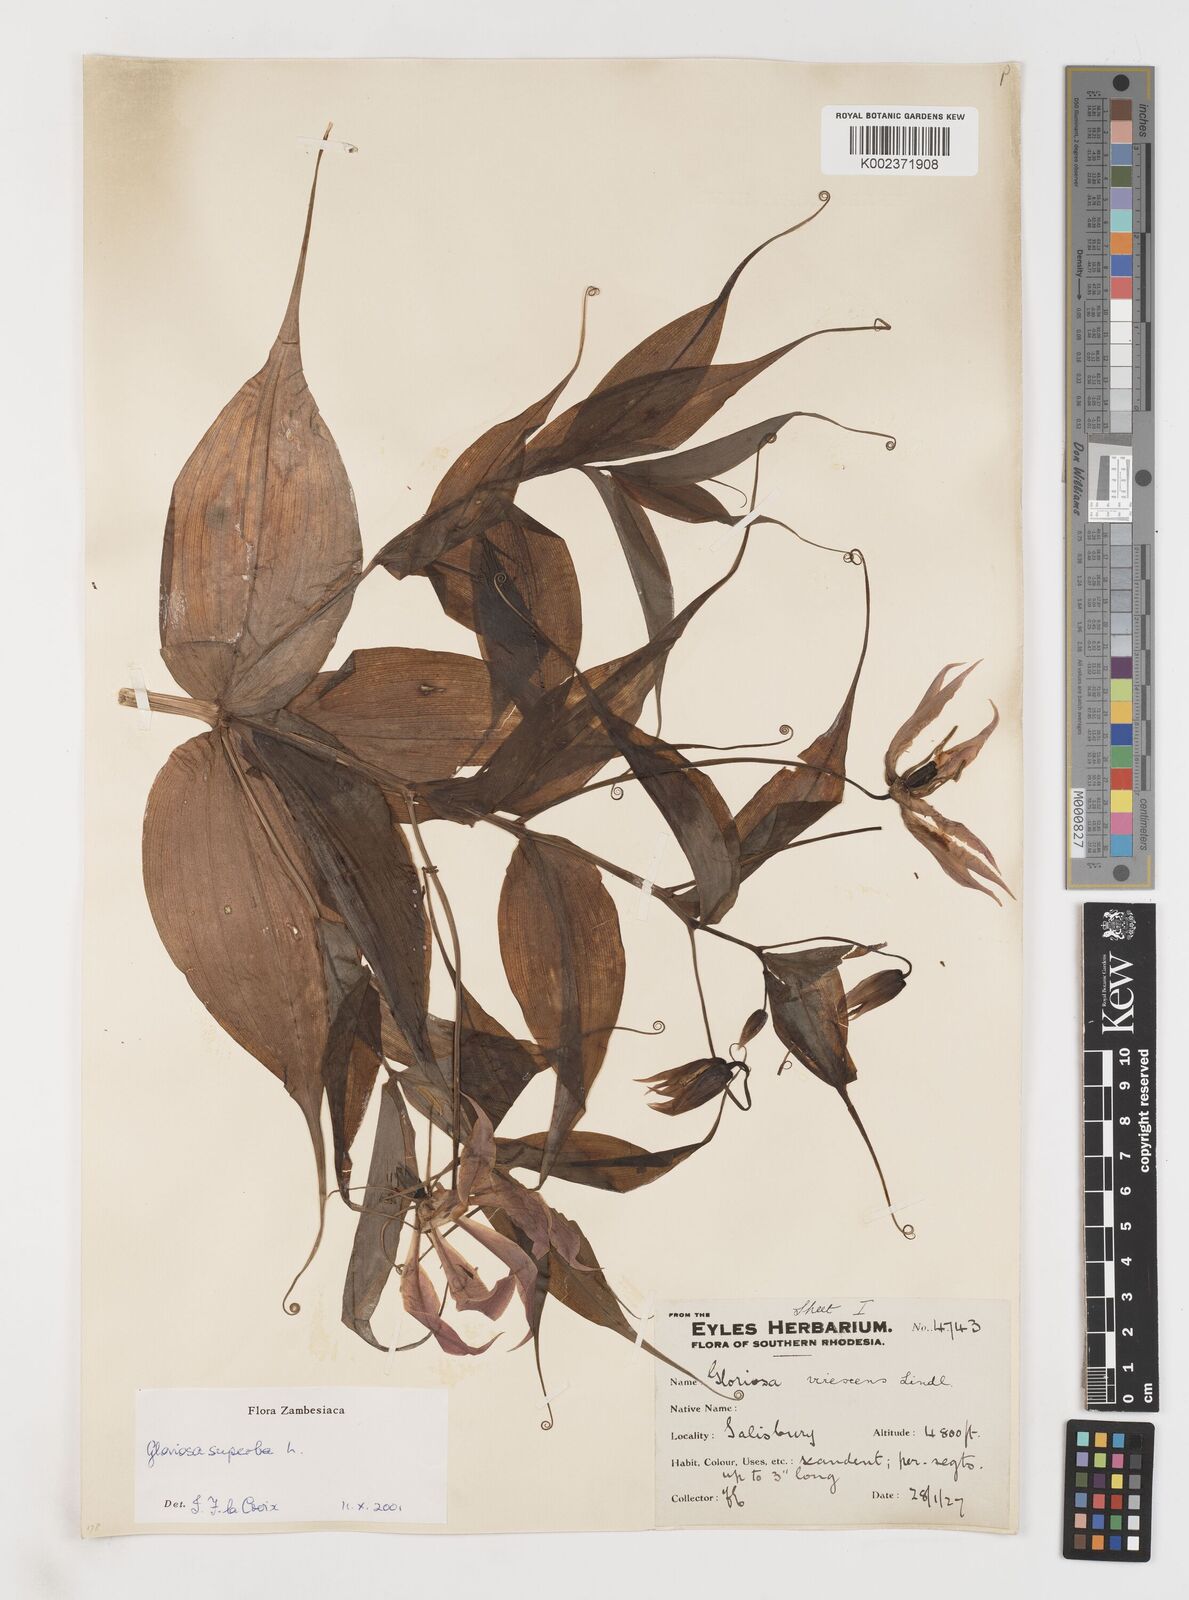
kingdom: Plantae
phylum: Tracheophyta
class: Liliopsida
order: Liliales
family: Colchicaceae
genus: Gloriosa
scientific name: Gloriosa simplex
